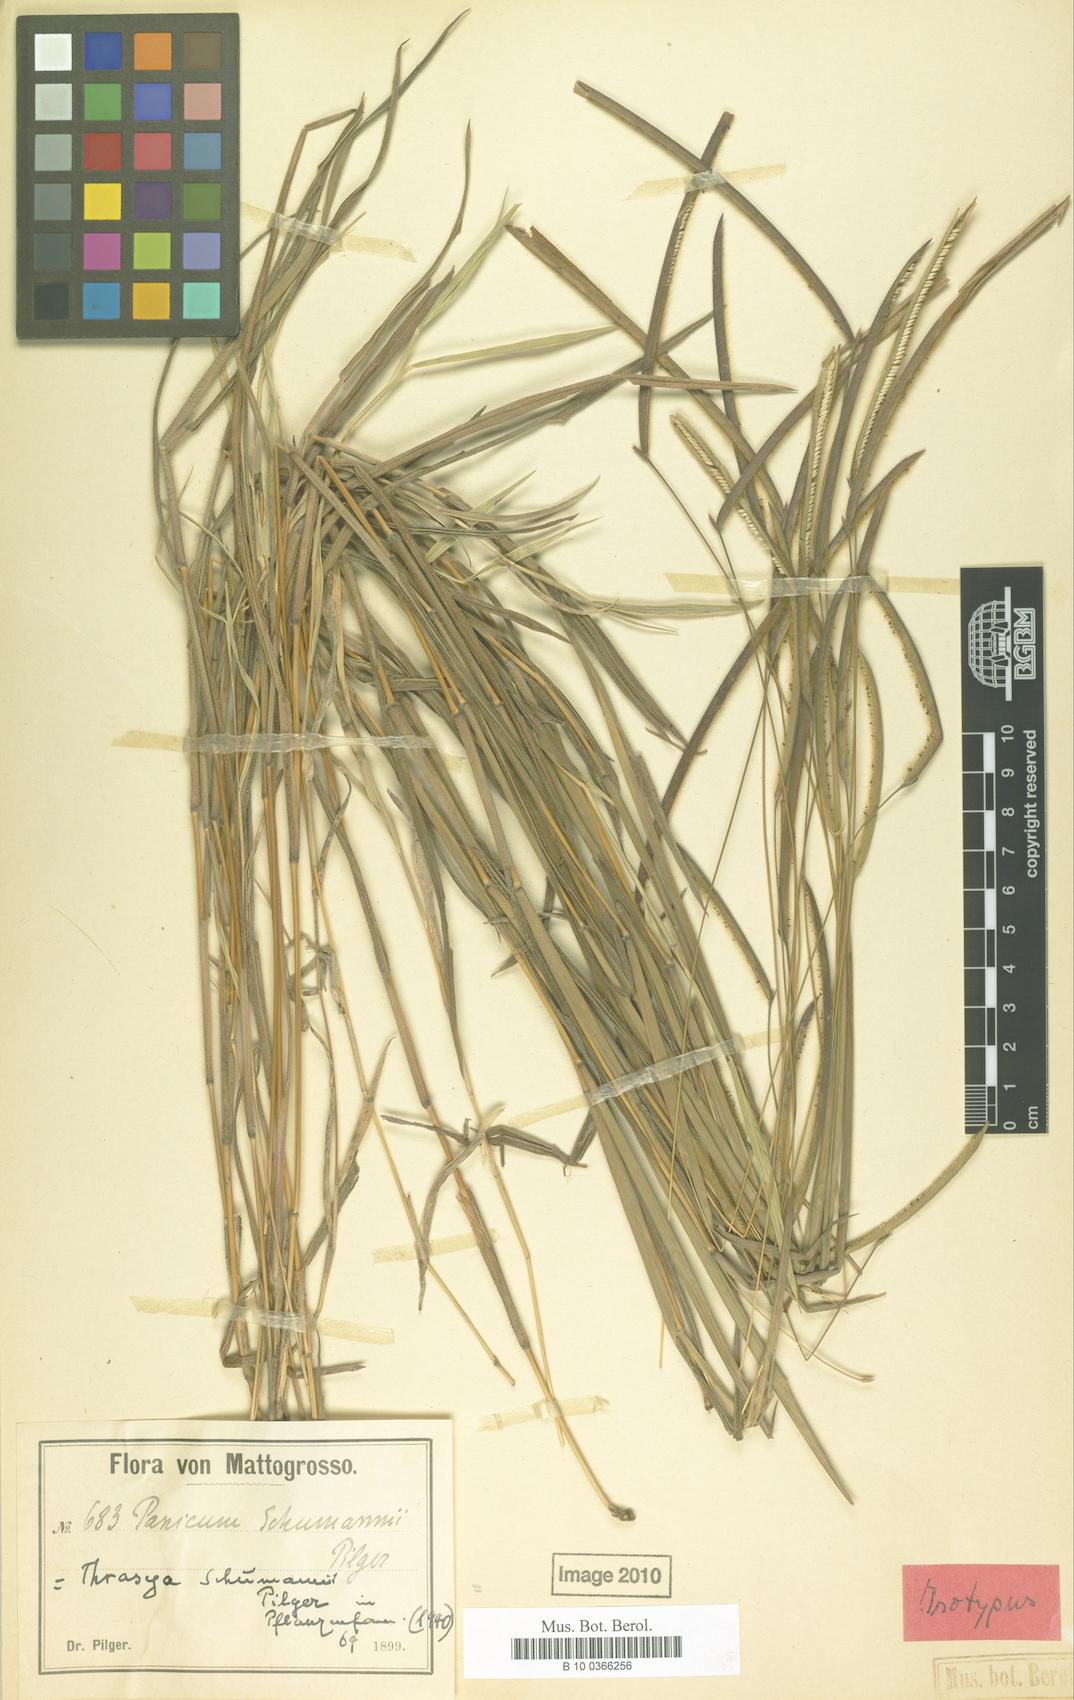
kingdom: Plantae
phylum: Tracheophyta
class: Liliopsida
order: Poales
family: Poaceae
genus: Paspalum
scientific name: Paspalum schumannii
